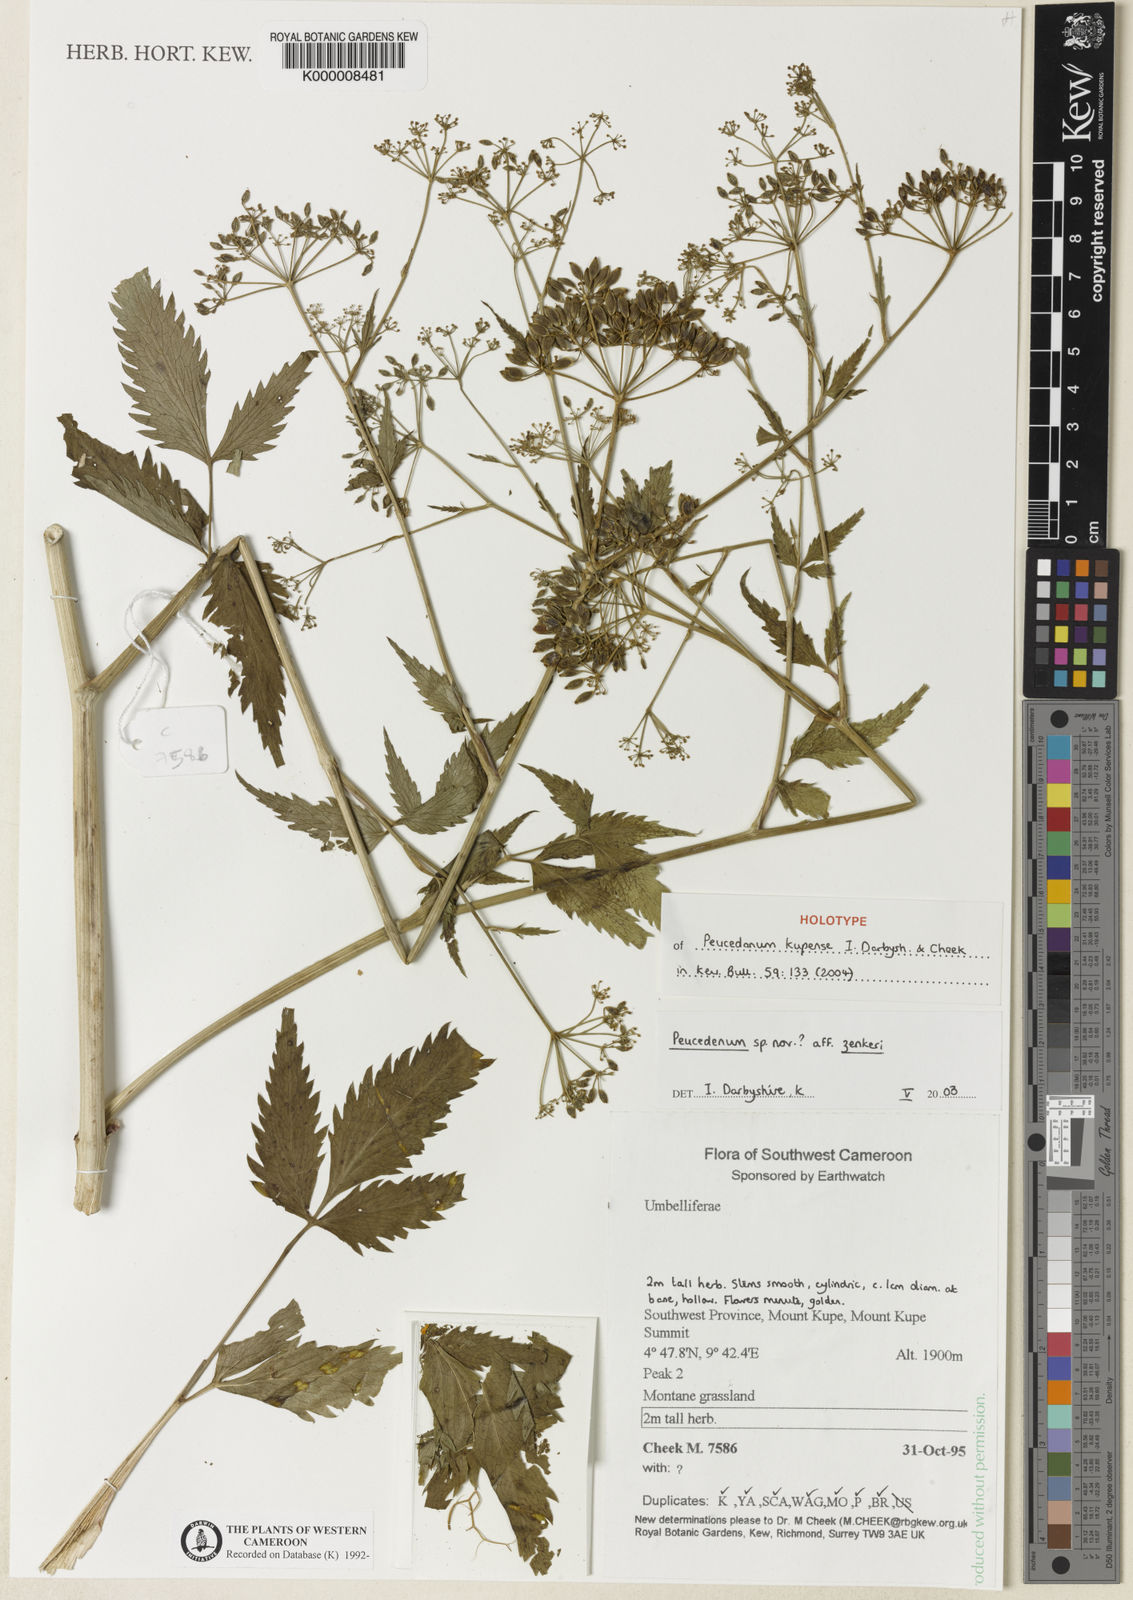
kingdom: Plantae
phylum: Tracheophyta
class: Magnoliopsida
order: Apiales
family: Apiaceae
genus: Lefebvrea
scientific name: Lefebvrea angustisecta
